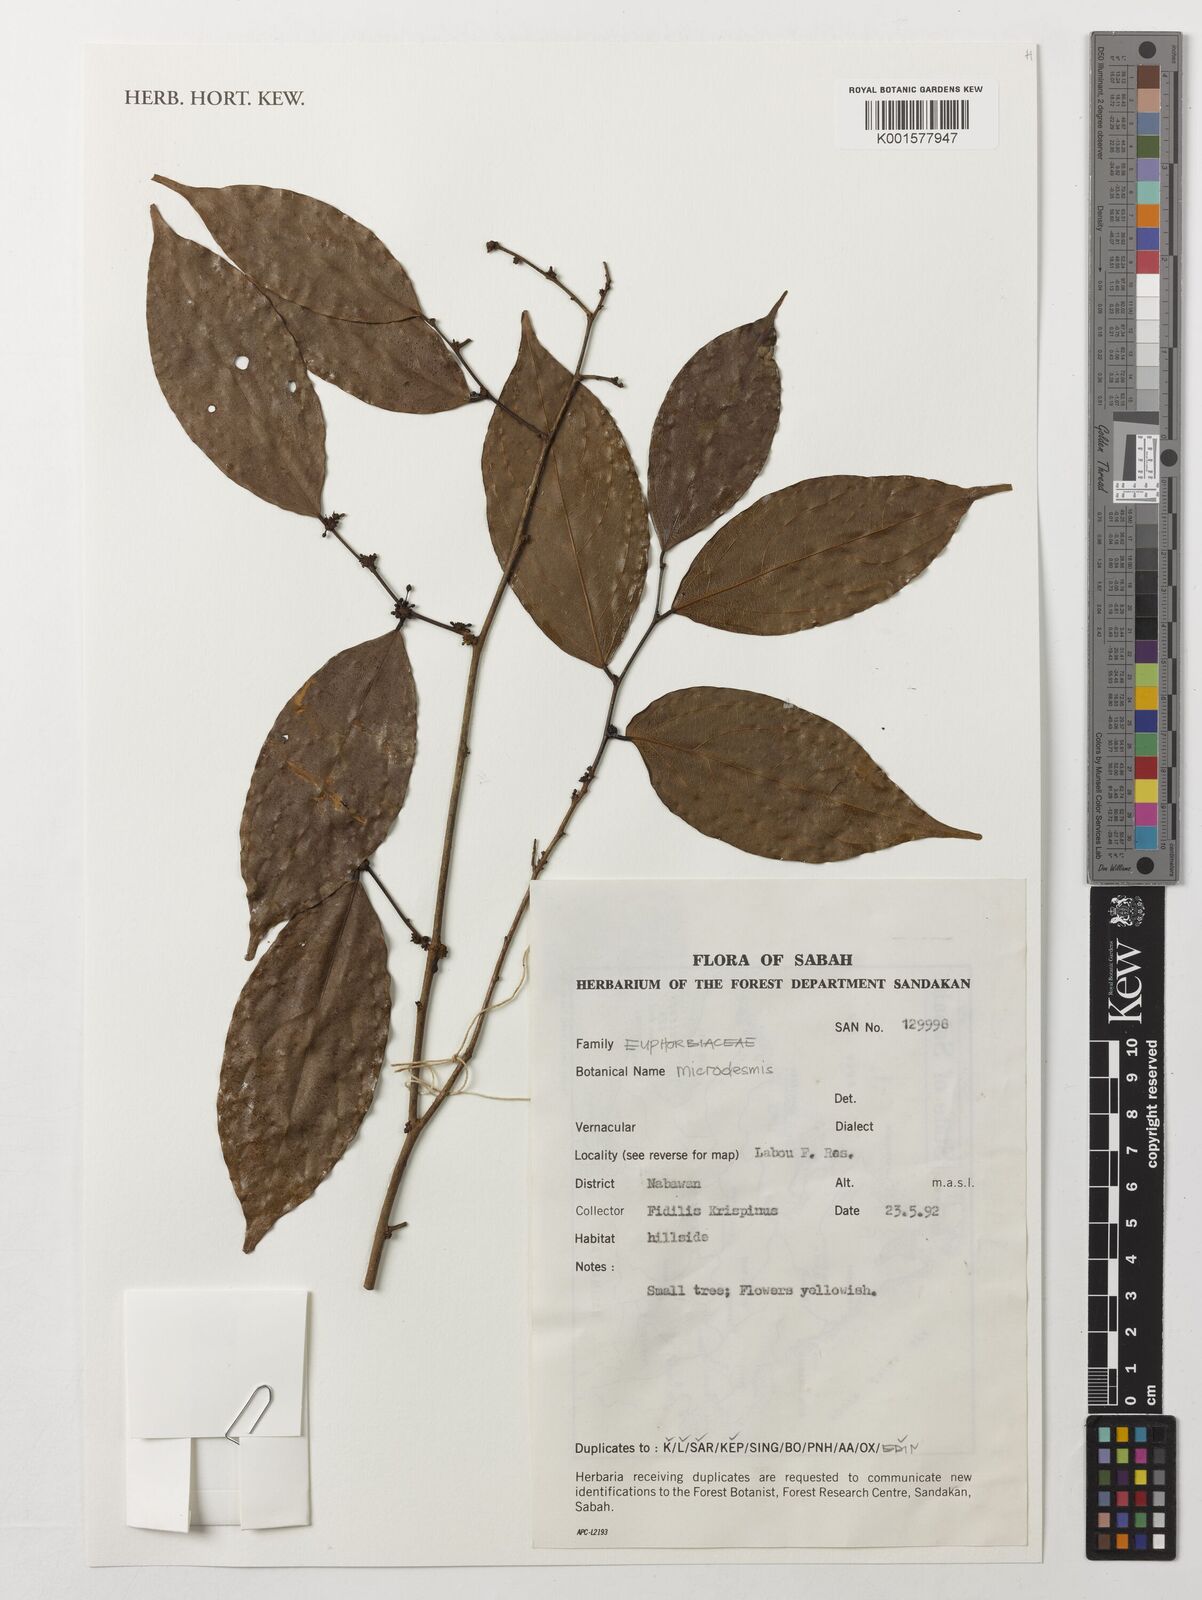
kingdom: Plantae
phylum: Tracheophyta
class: Magnoliopsida
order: Malpighiales
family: Pandaceae
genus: Microdesmis
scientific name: Microdesmis
